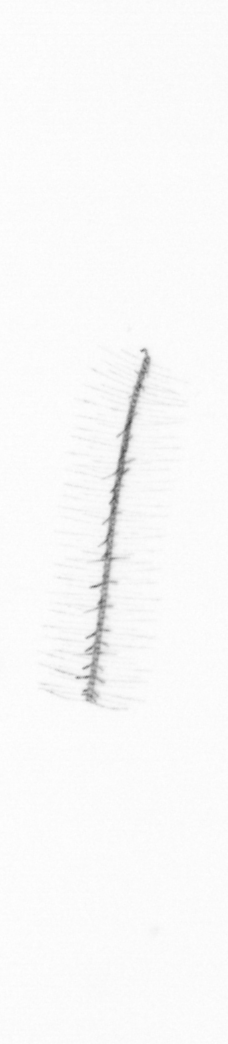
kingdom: Chromista
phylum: Ochrophyta
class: Bacillariophyceae
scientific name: Bacillariophyceae
